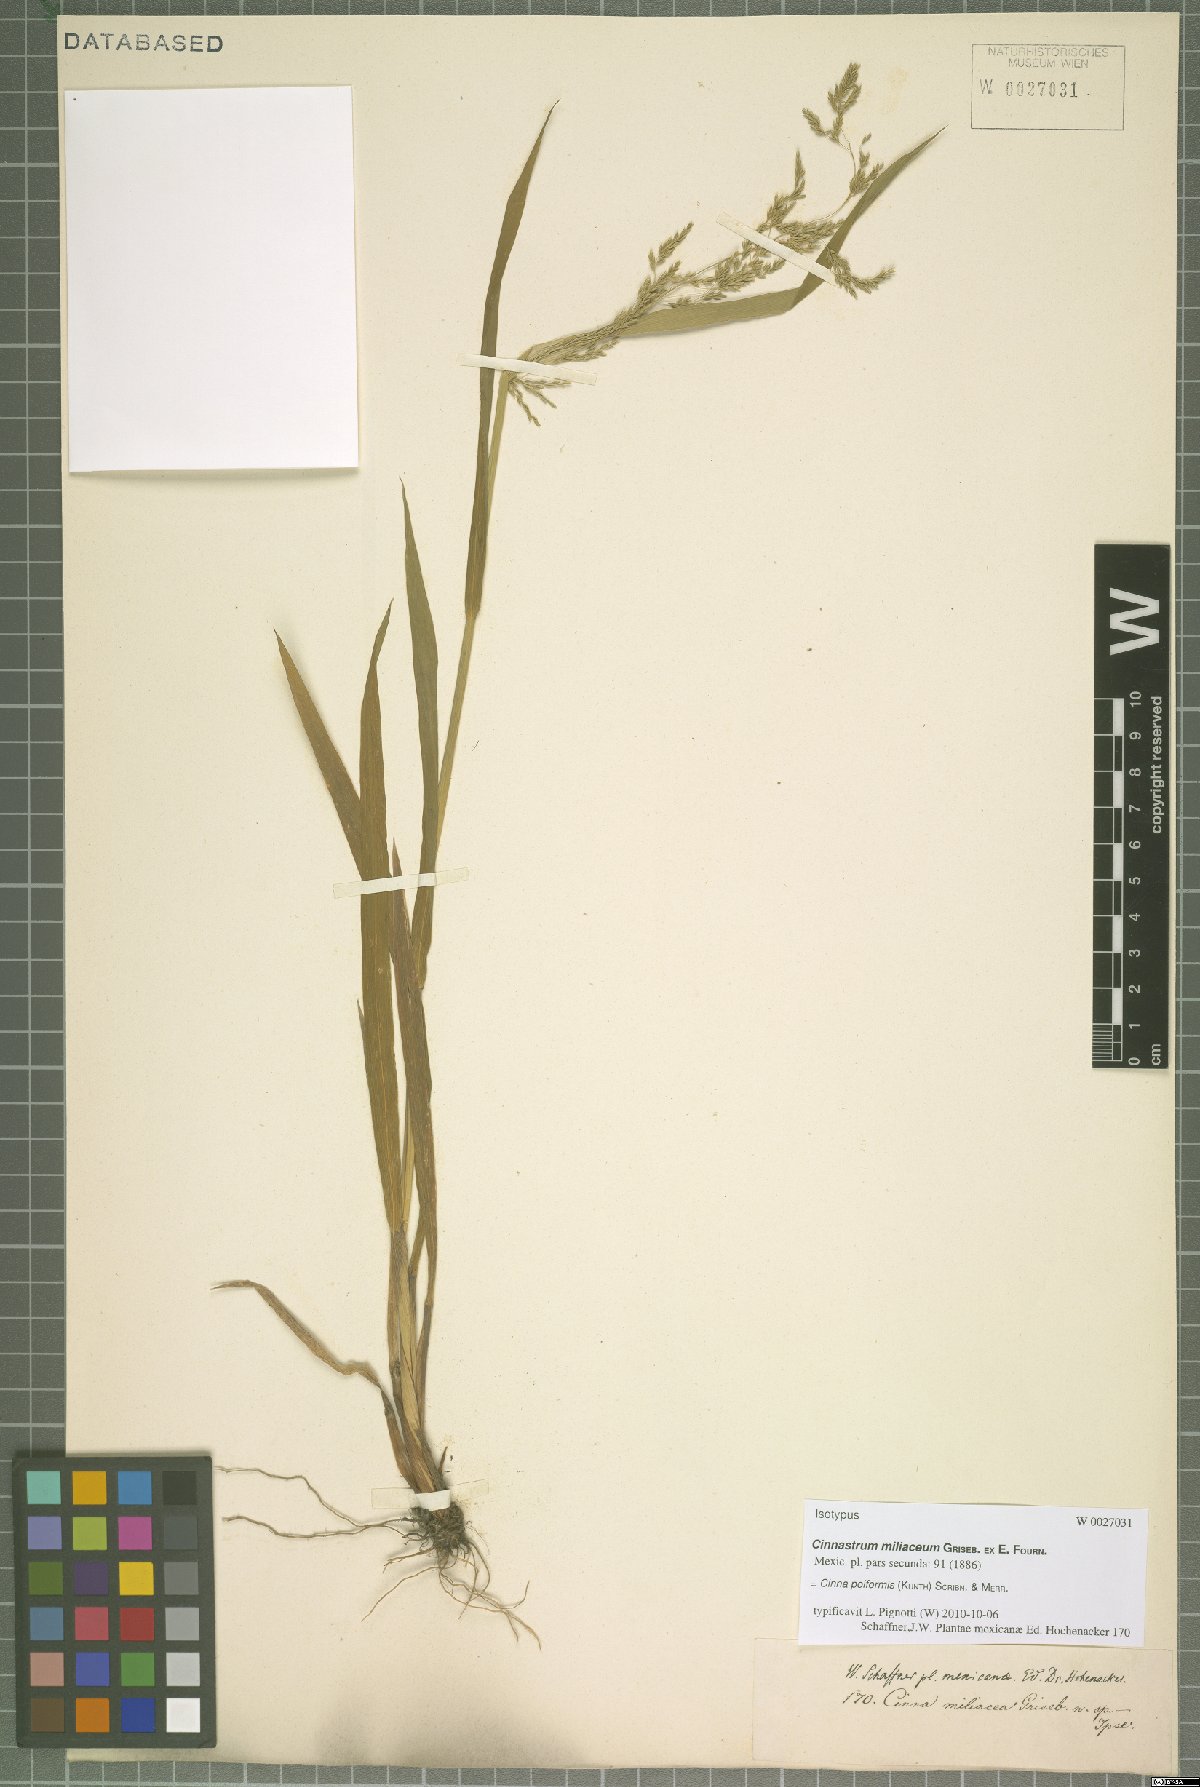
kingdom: Plantae
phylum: Tracheophyta
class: Liliopsida
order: Poales
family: Poaceae
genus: Cinnastrum
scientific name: Cinnastrum poiforme
